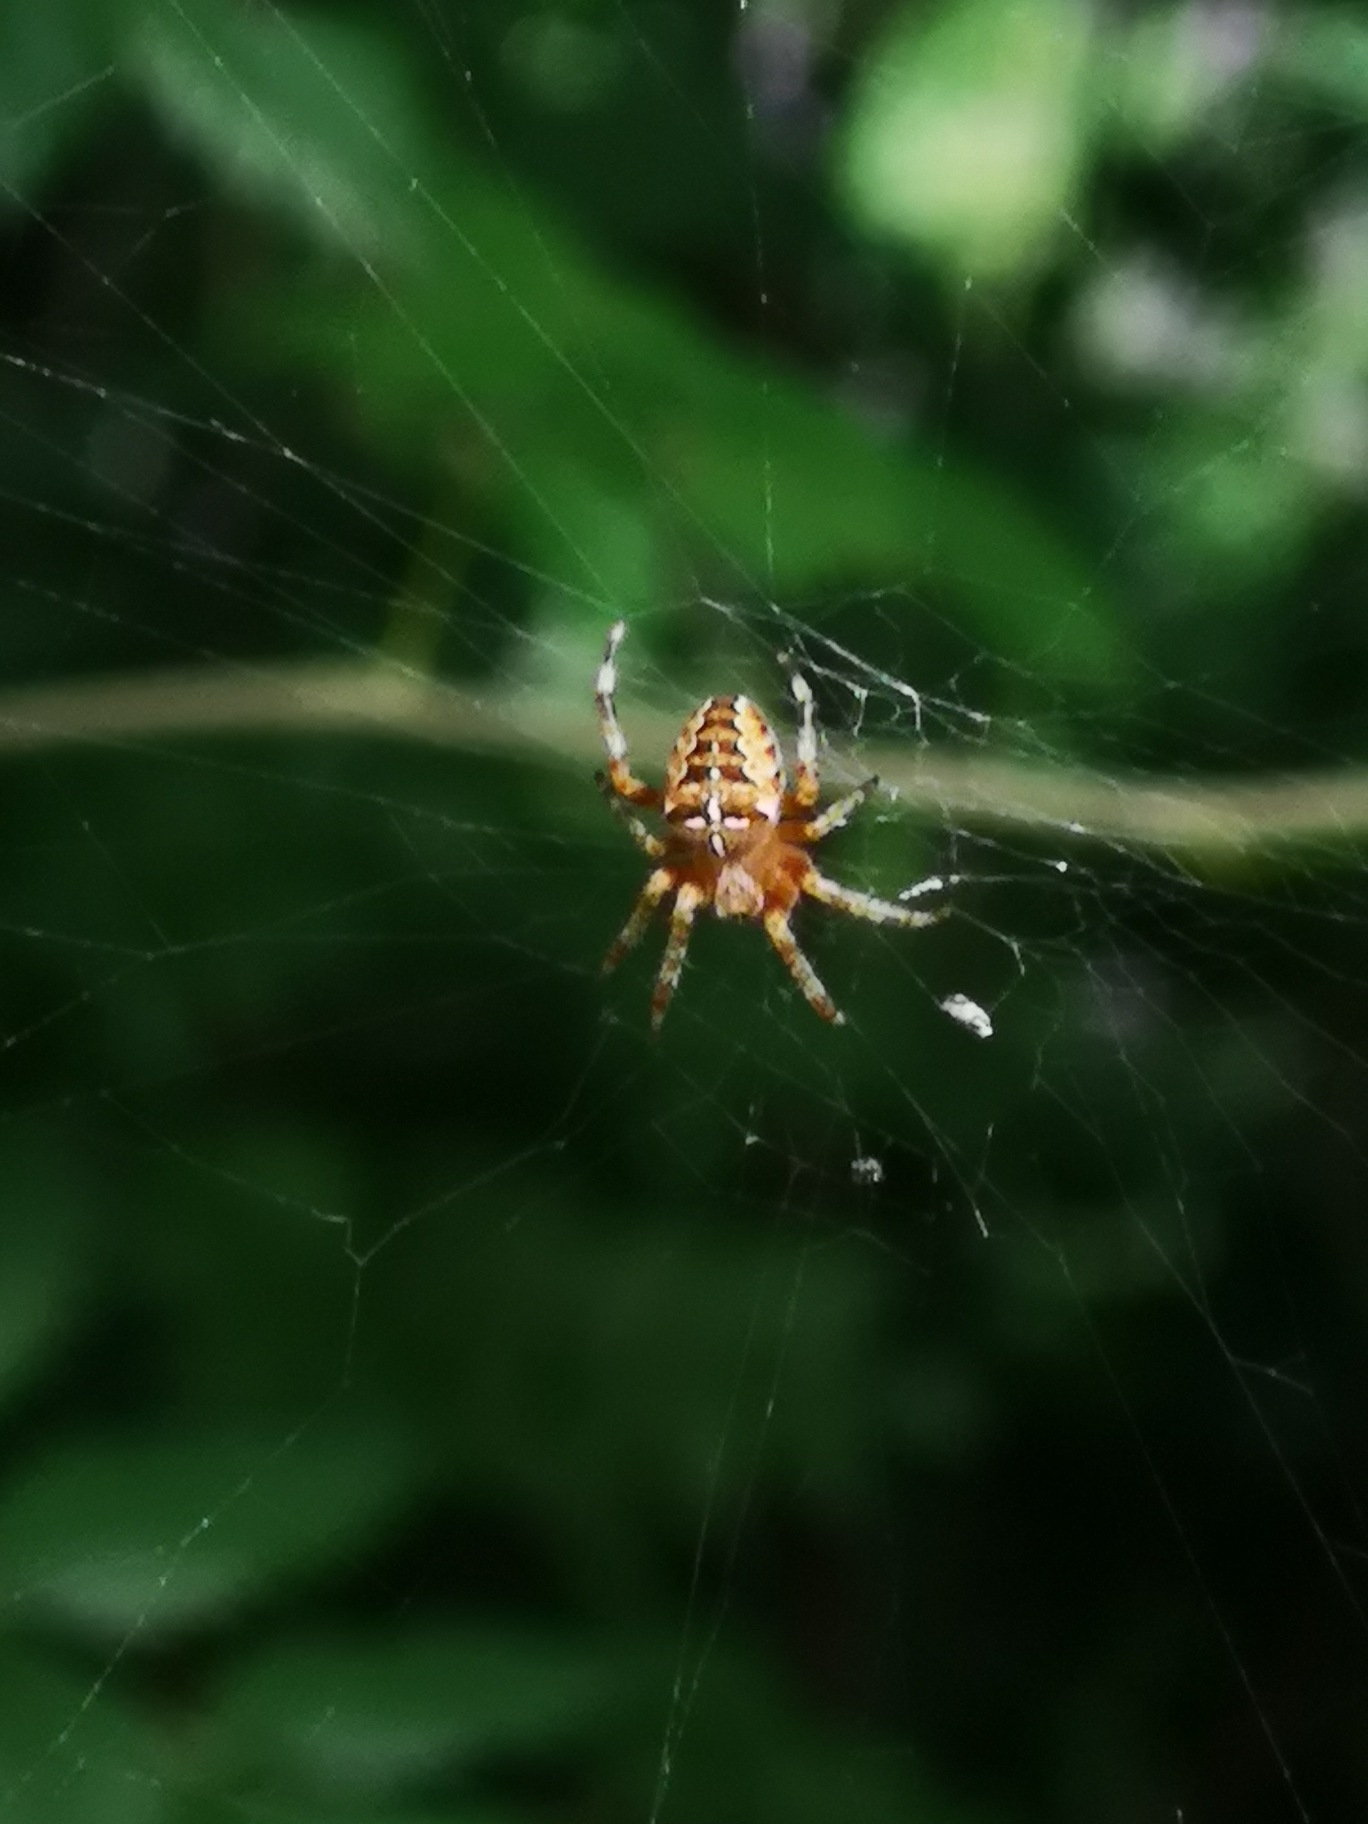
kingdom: Animalia
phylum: Arthropoda
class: Arachnida
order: Araneae
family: Araneidae
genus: Araneus
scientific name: Araneus diadematus
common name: Korsedderkop
